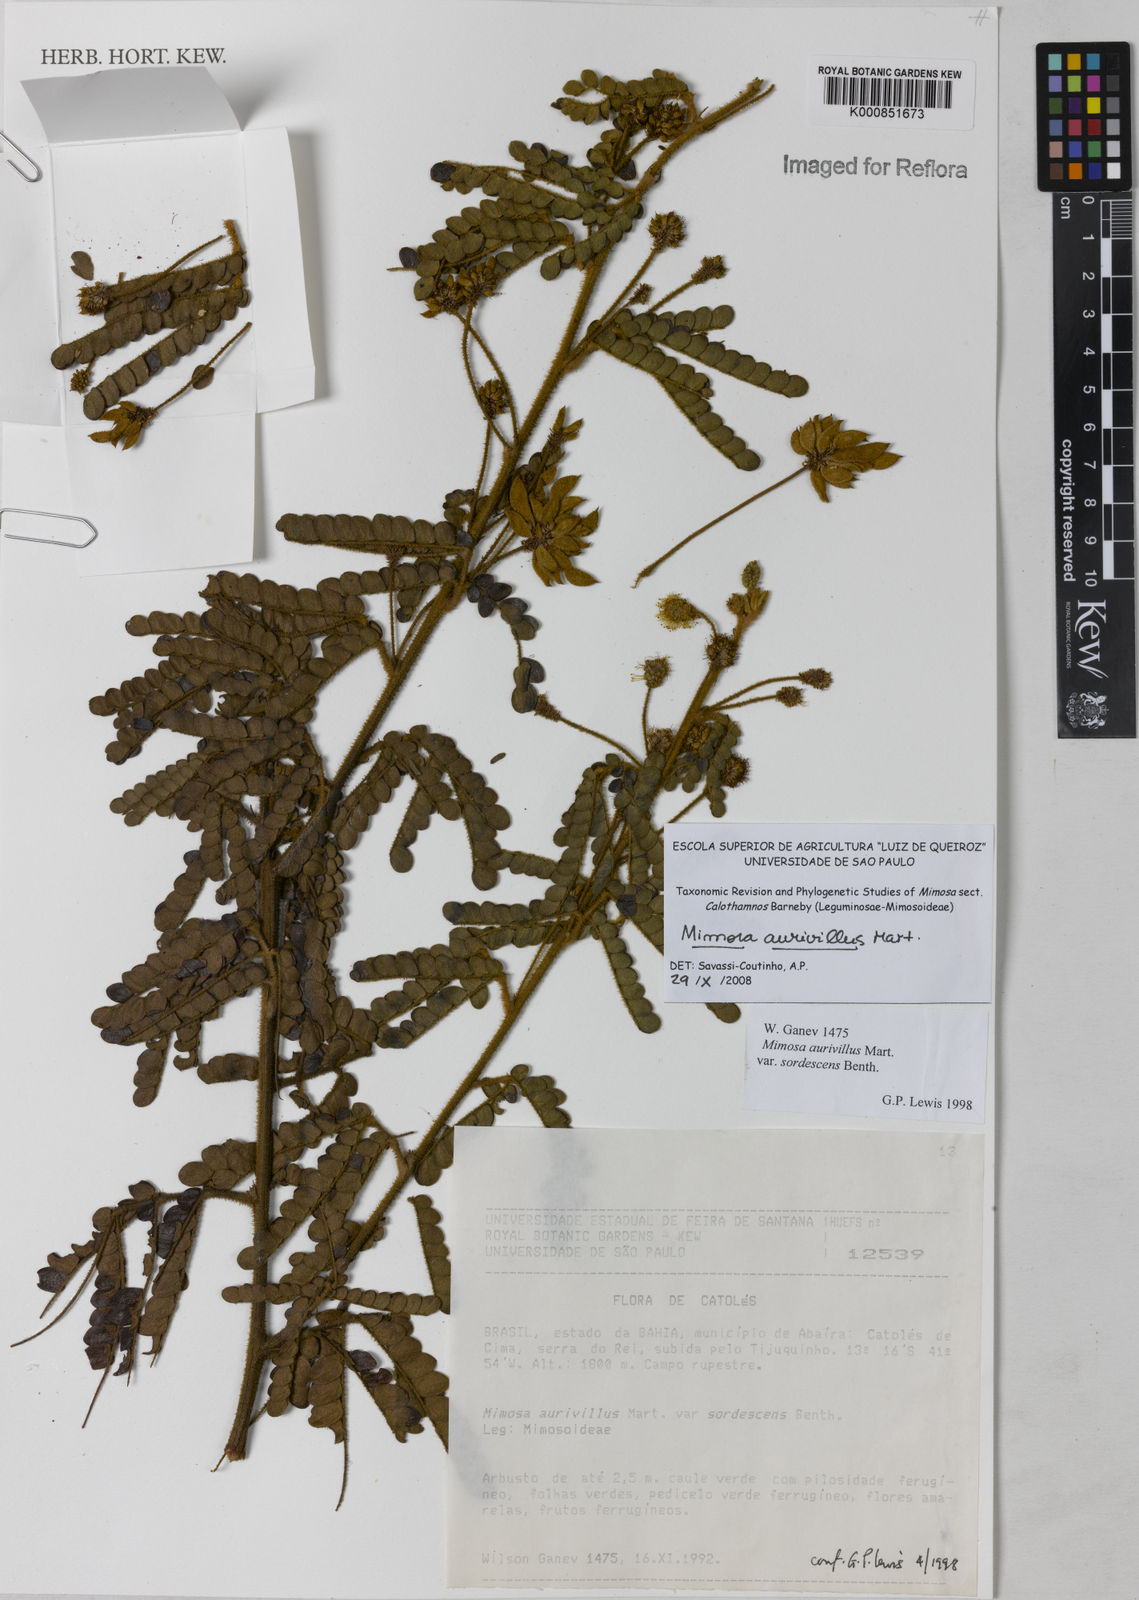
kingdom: Plantae
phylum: Tracheophyta
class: Magnoliopsida
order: Fabales
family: Fabaceae
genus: Mimosa
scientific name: Mimosa aurivillus
